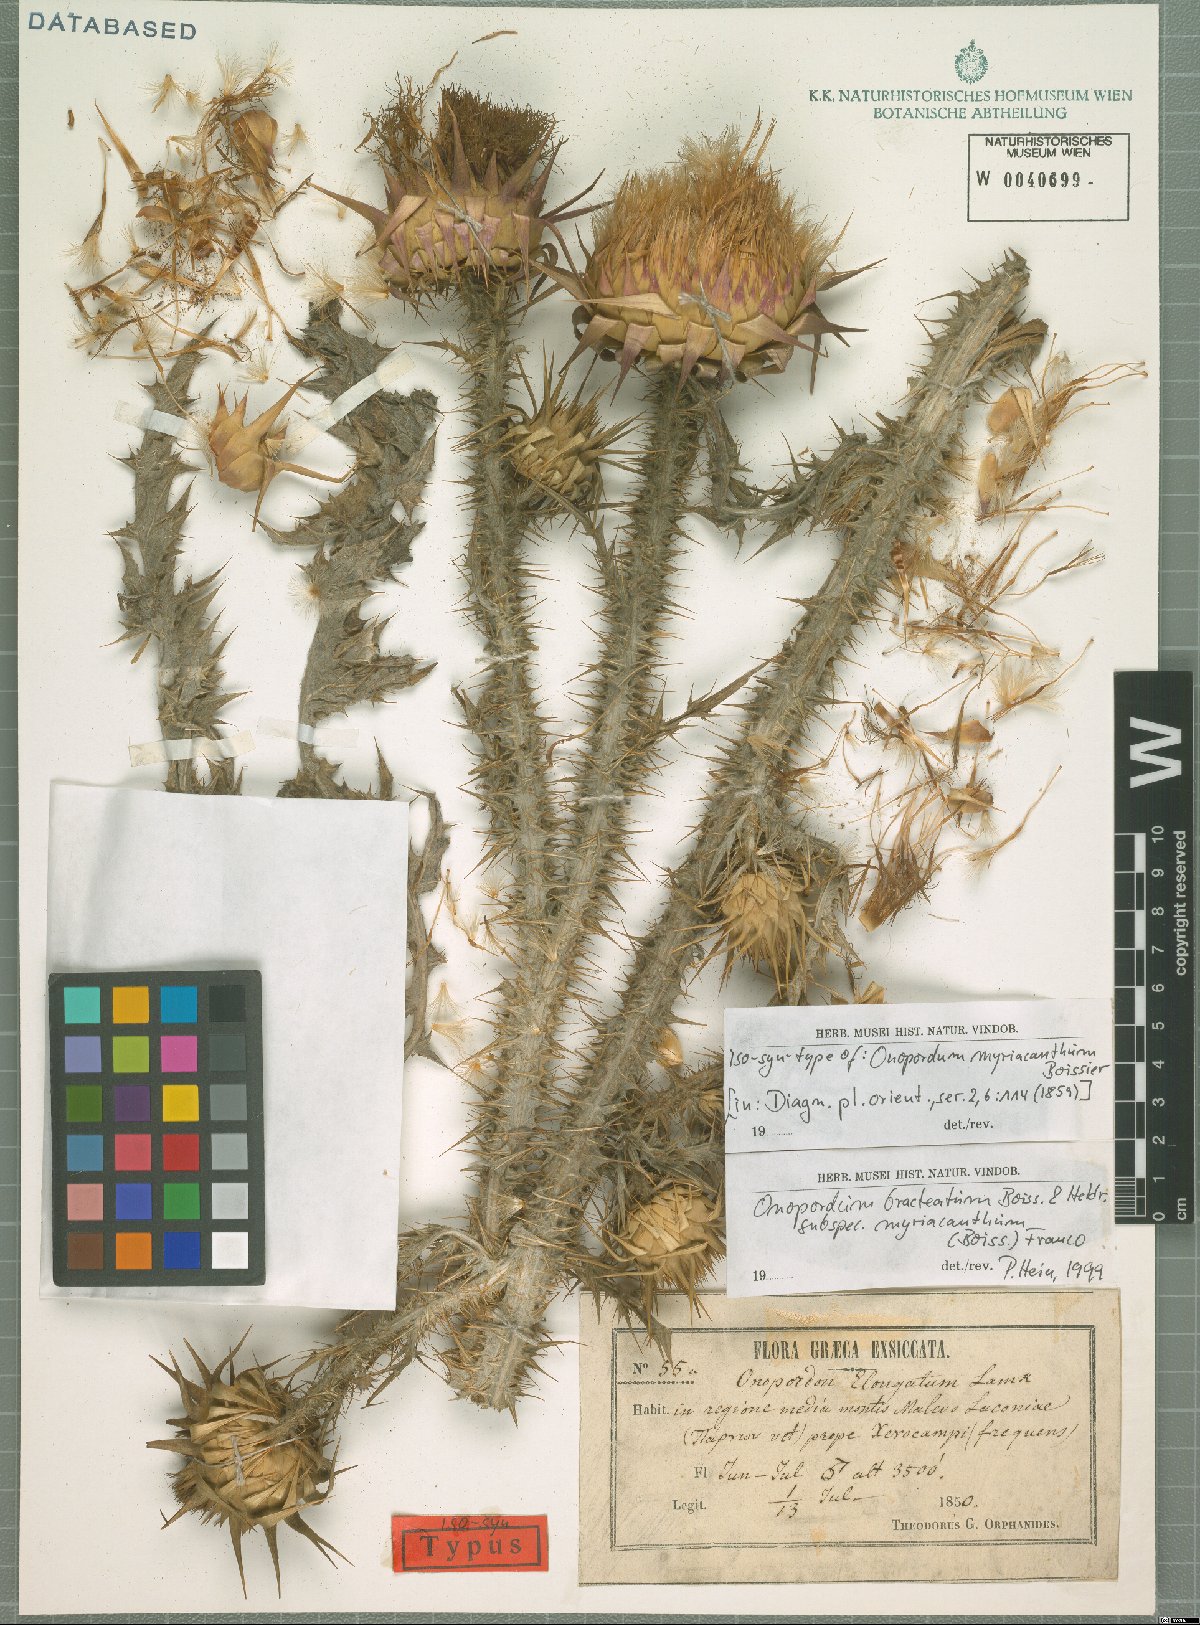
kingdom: Plantae
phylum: Tracheophyta
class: Magnoliopsida
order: Asterales
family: Asteraceae
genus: Onopordum
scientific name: Onopordum myriacanthum
